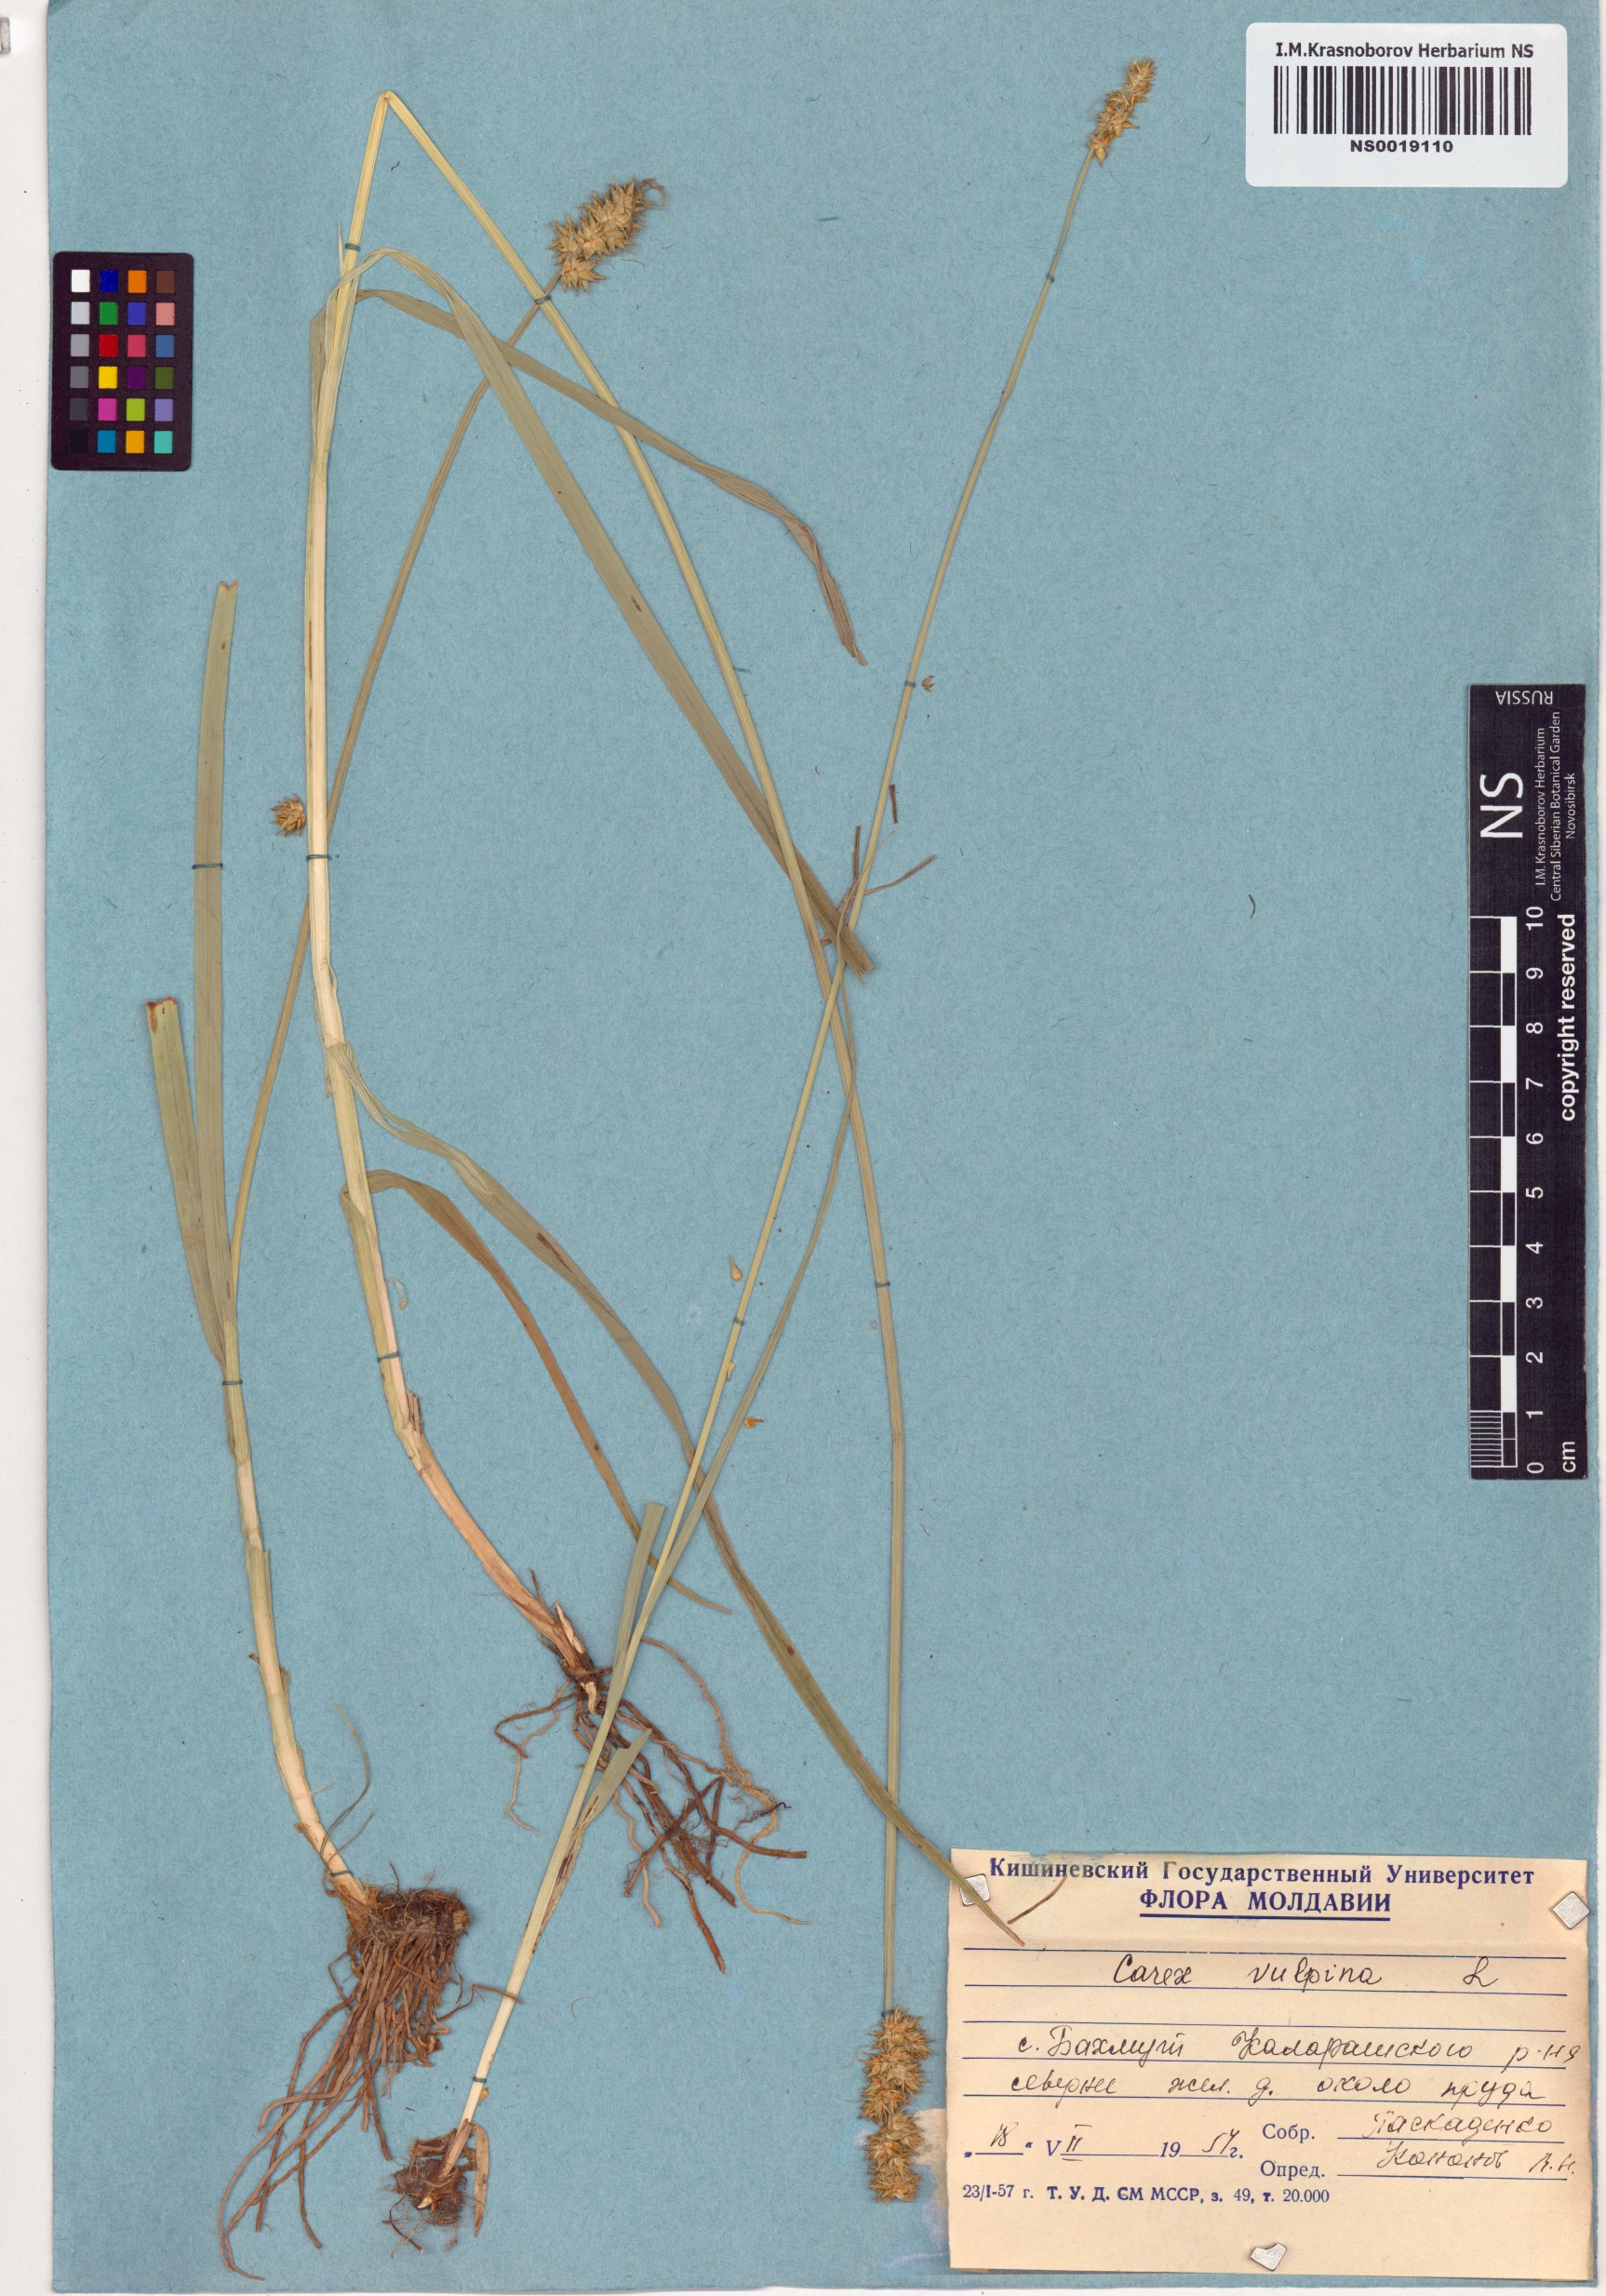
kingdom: Plantae
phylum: Tracheophyta
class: Liliopsida
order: Poales
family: Cyperaceae
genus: Carex
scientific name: Carex vulpina
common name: True fox-sedge
